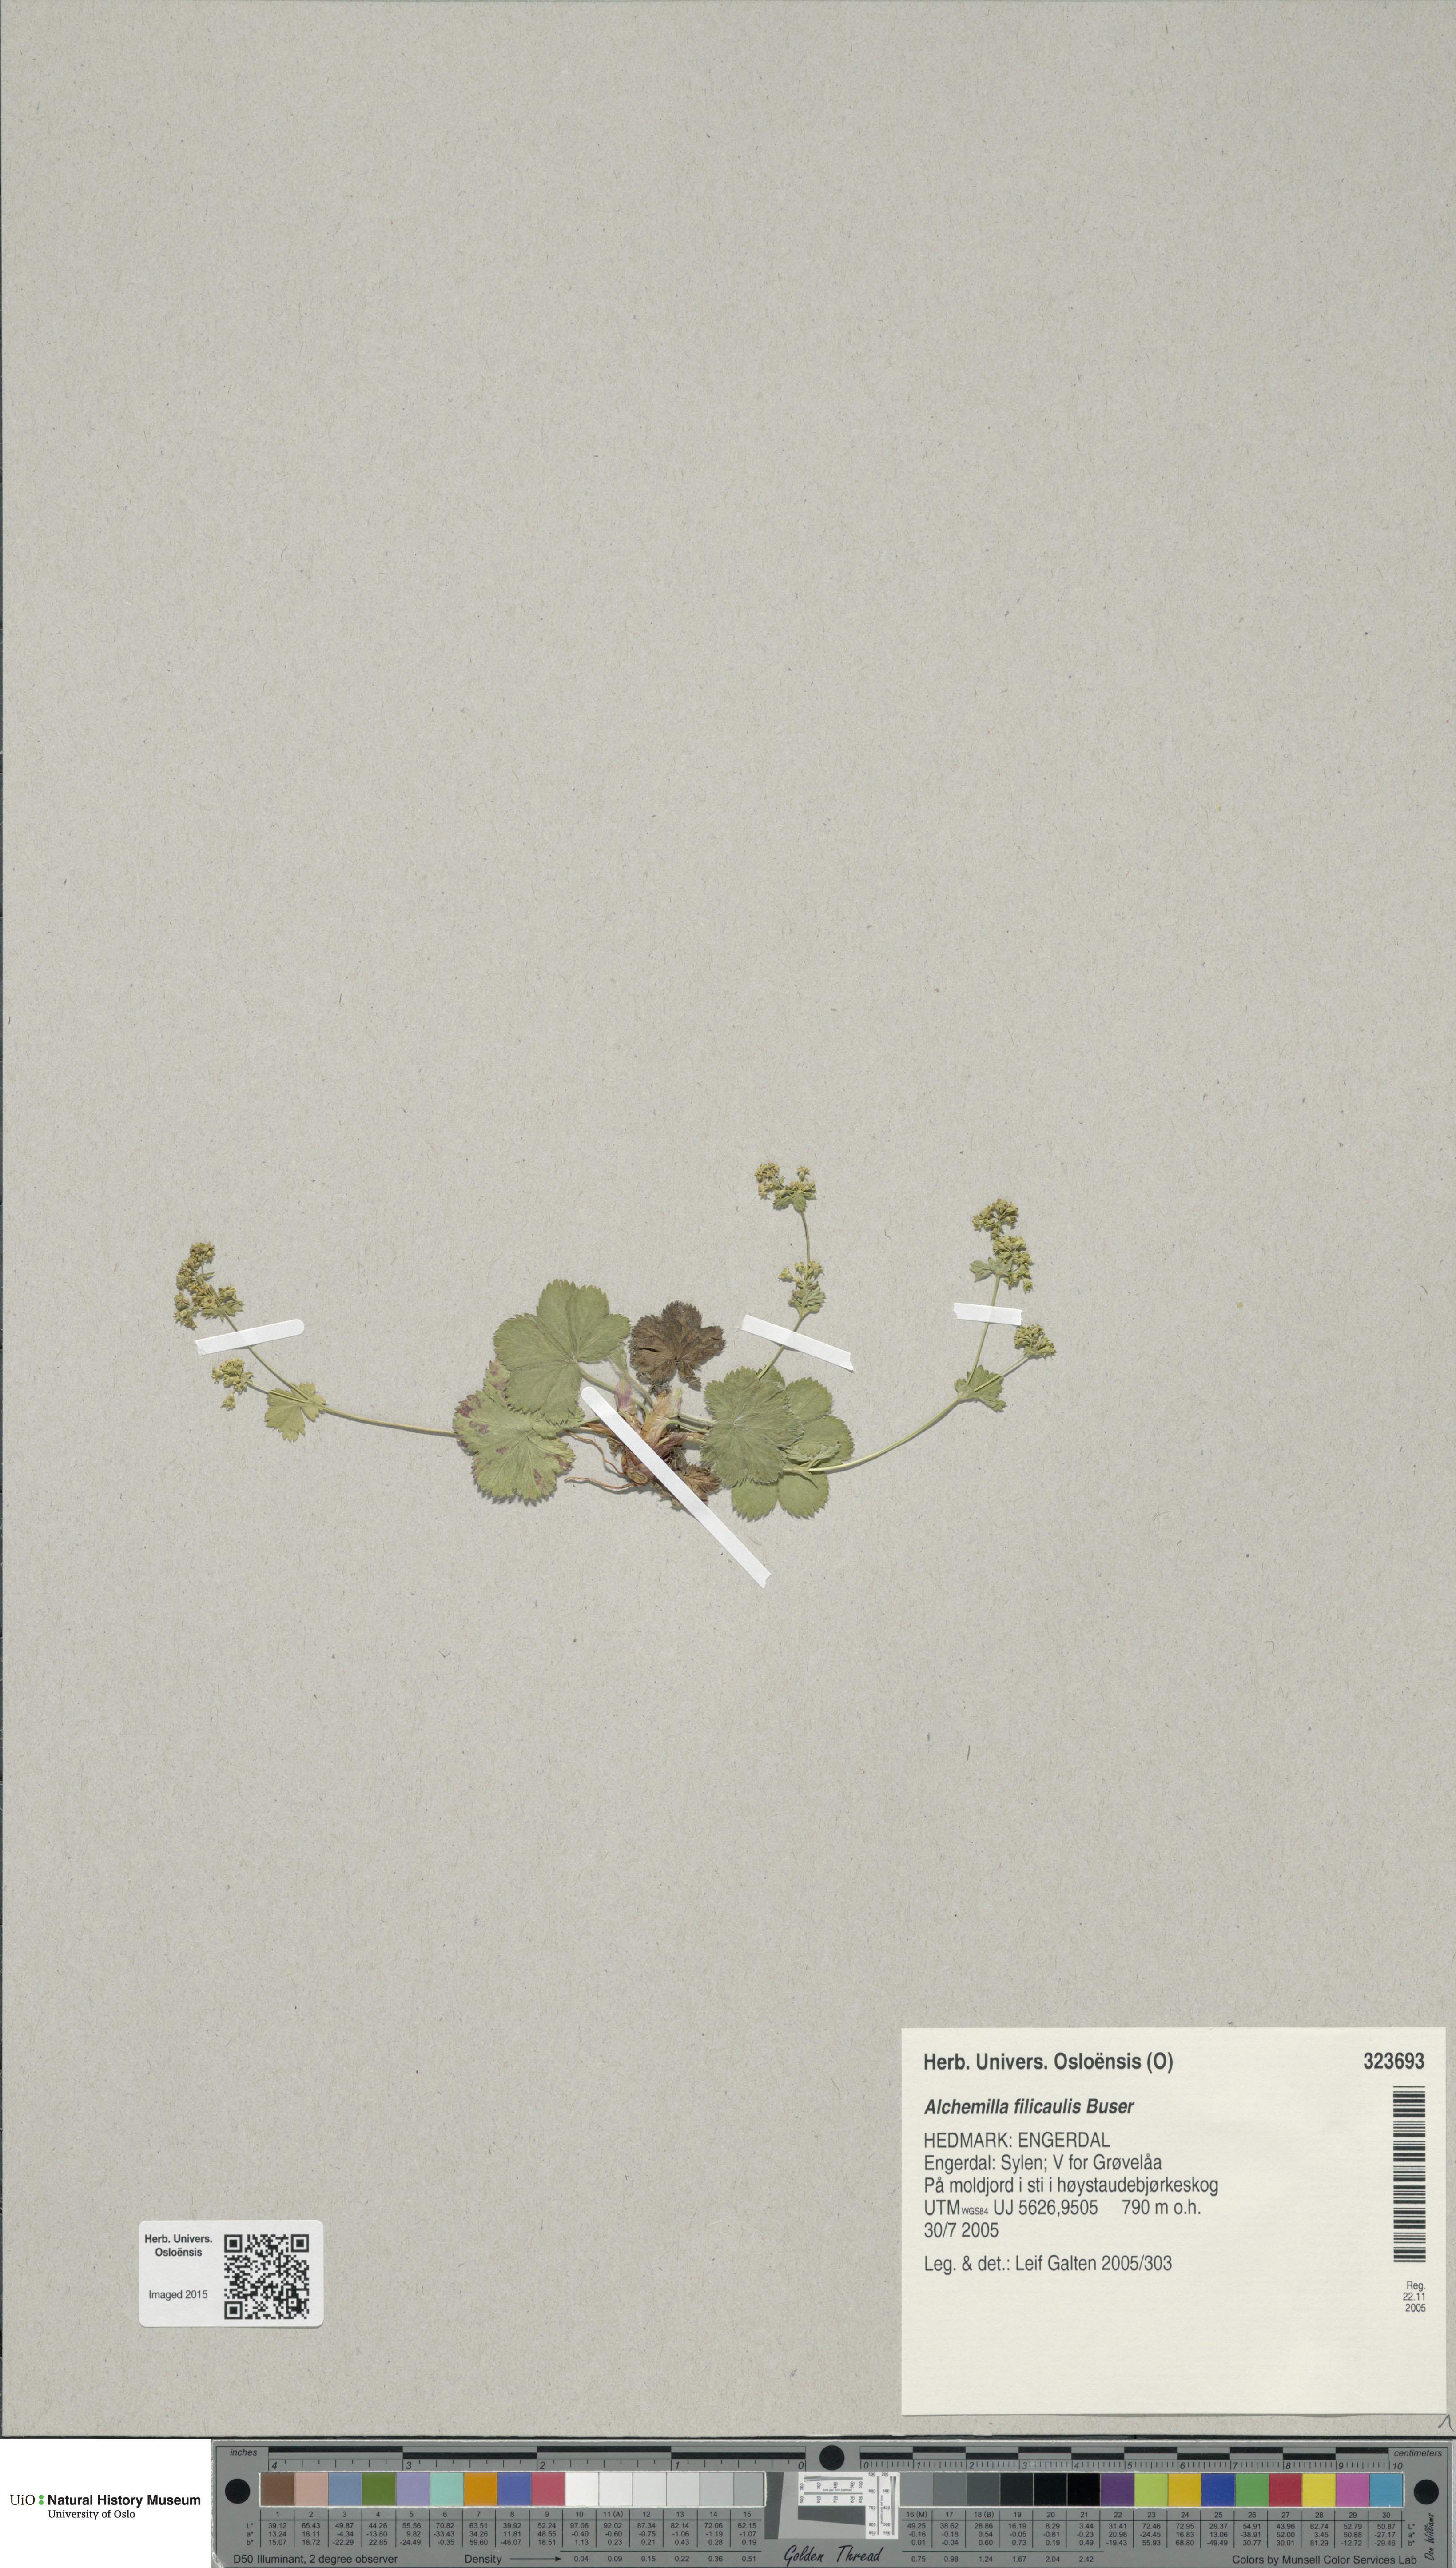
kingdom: Plantae
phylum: Tracheophyta
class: Magnoliopsida
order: Rosales
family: Rosaceae
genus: Alchemilla
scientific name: Alchemilla filicaulis
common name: Hairy lady's-mantle
